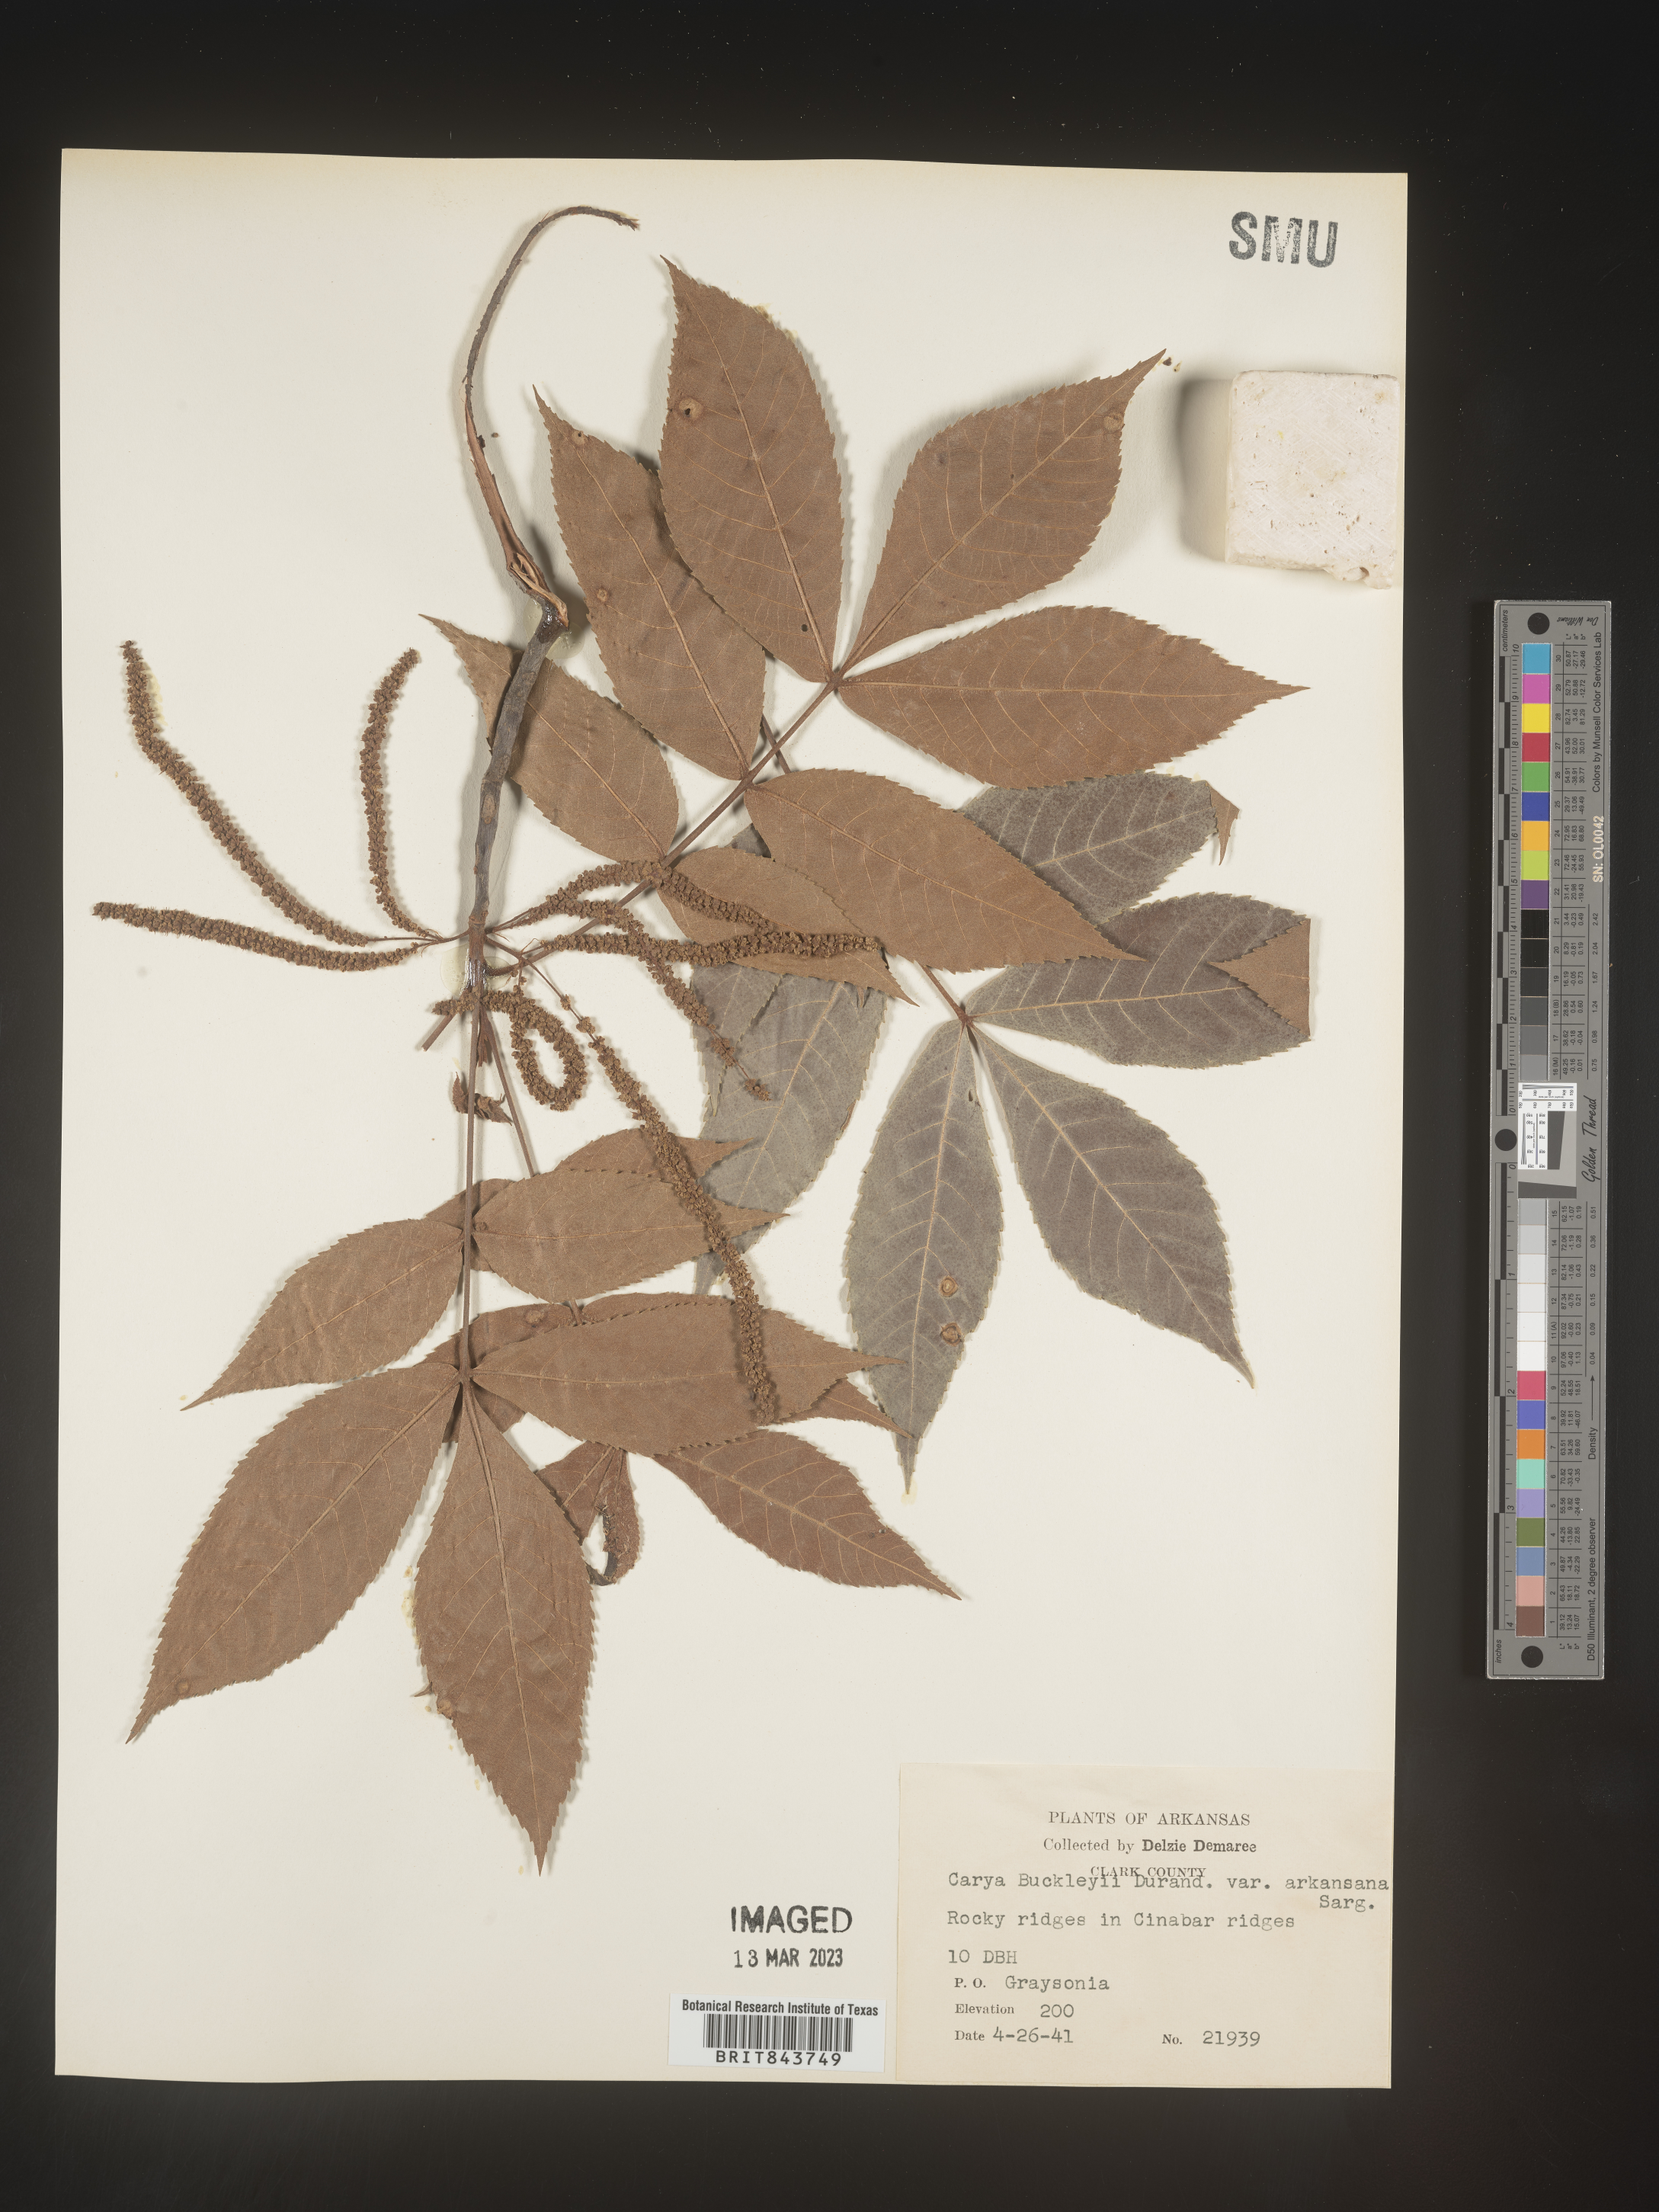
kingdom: Plantae
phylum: Tracheophyta
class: Magnoliopsida
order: Fagales
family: Juglandaceae
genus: Carya
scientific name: Carya texana
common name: Black hickory
